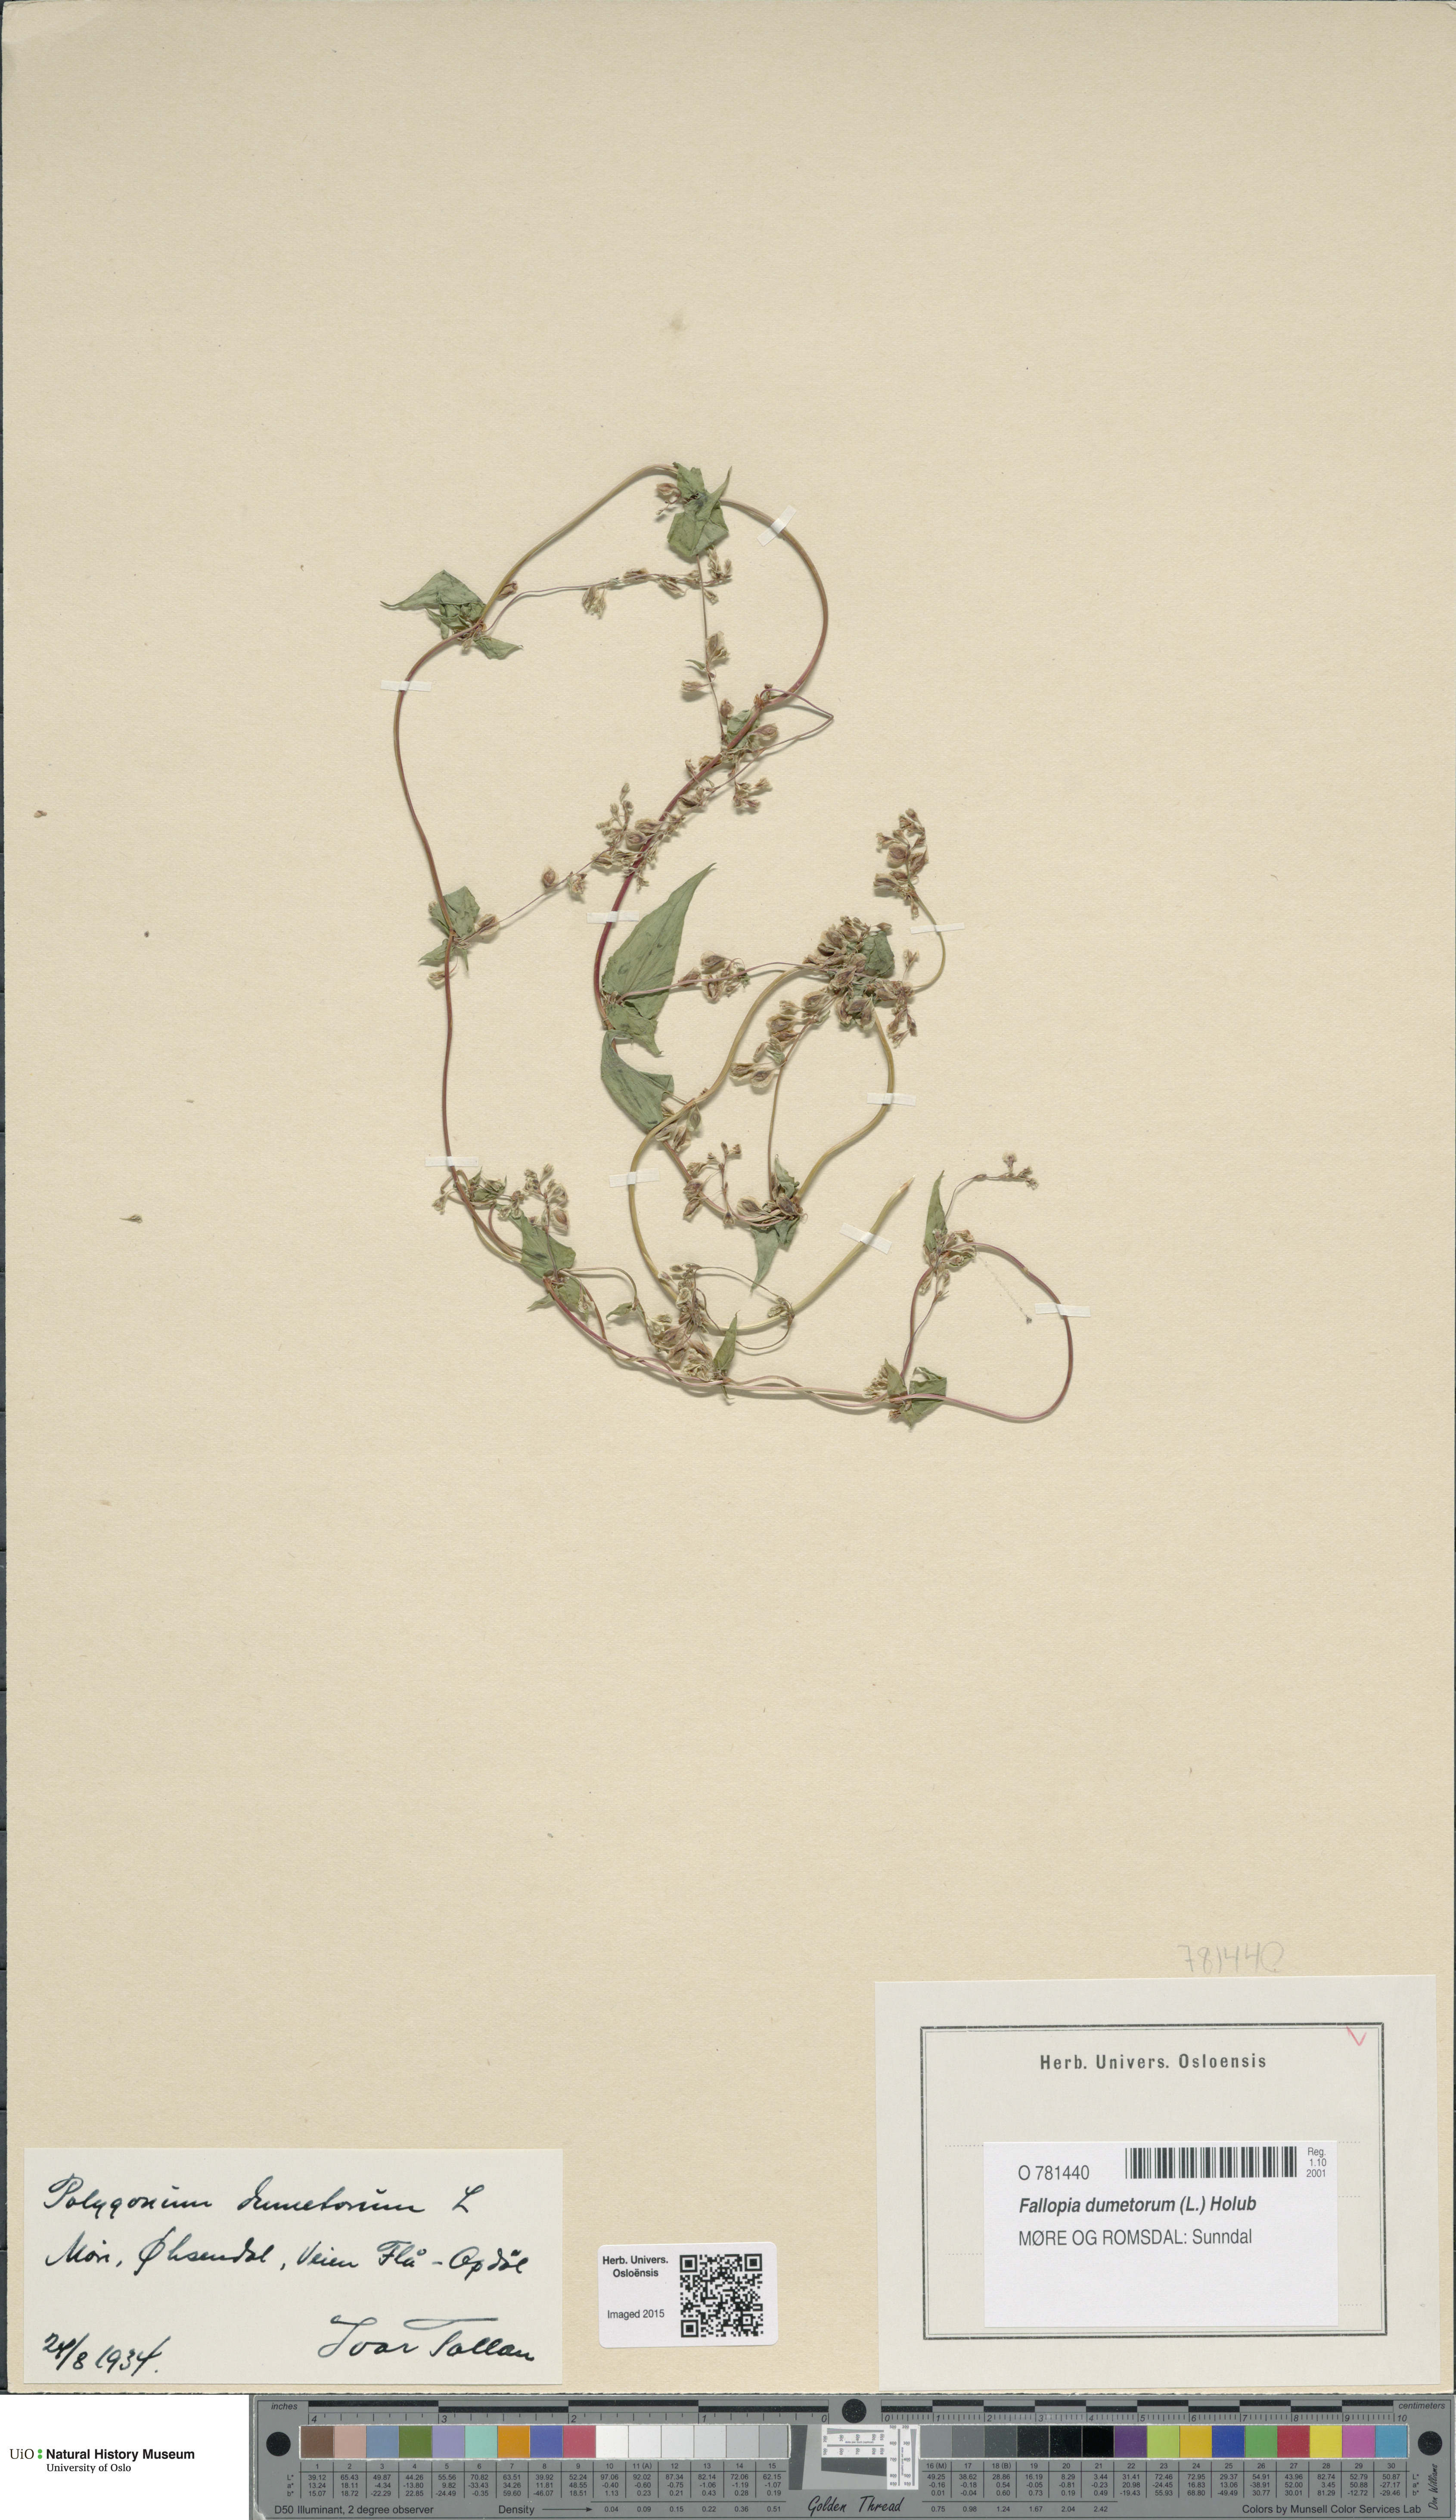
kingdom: Plantae
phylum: Tracheophyta
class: Magnoliopsida
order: Caryophyllales
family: Polygonaceae
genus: Fallopia
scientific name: Fallopia dumetorum
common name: Copse-bindweed
